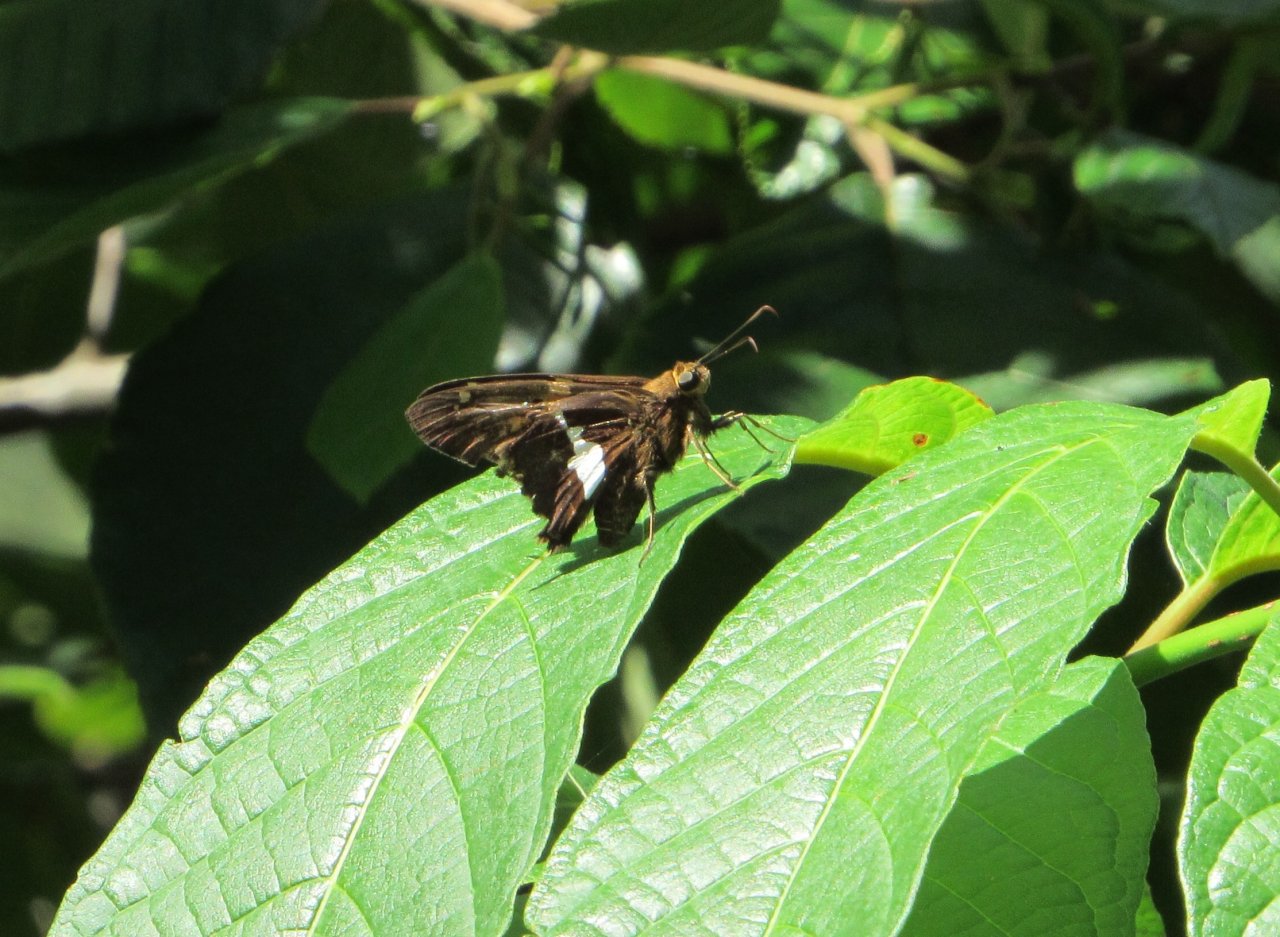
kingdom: Animalia
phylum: Arthropoda
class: Insecta
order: Lepidoptera
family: Hesperiidae
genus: Epargyreus
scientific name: Epargyreus clarus
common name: Silver-spotted Skipper
